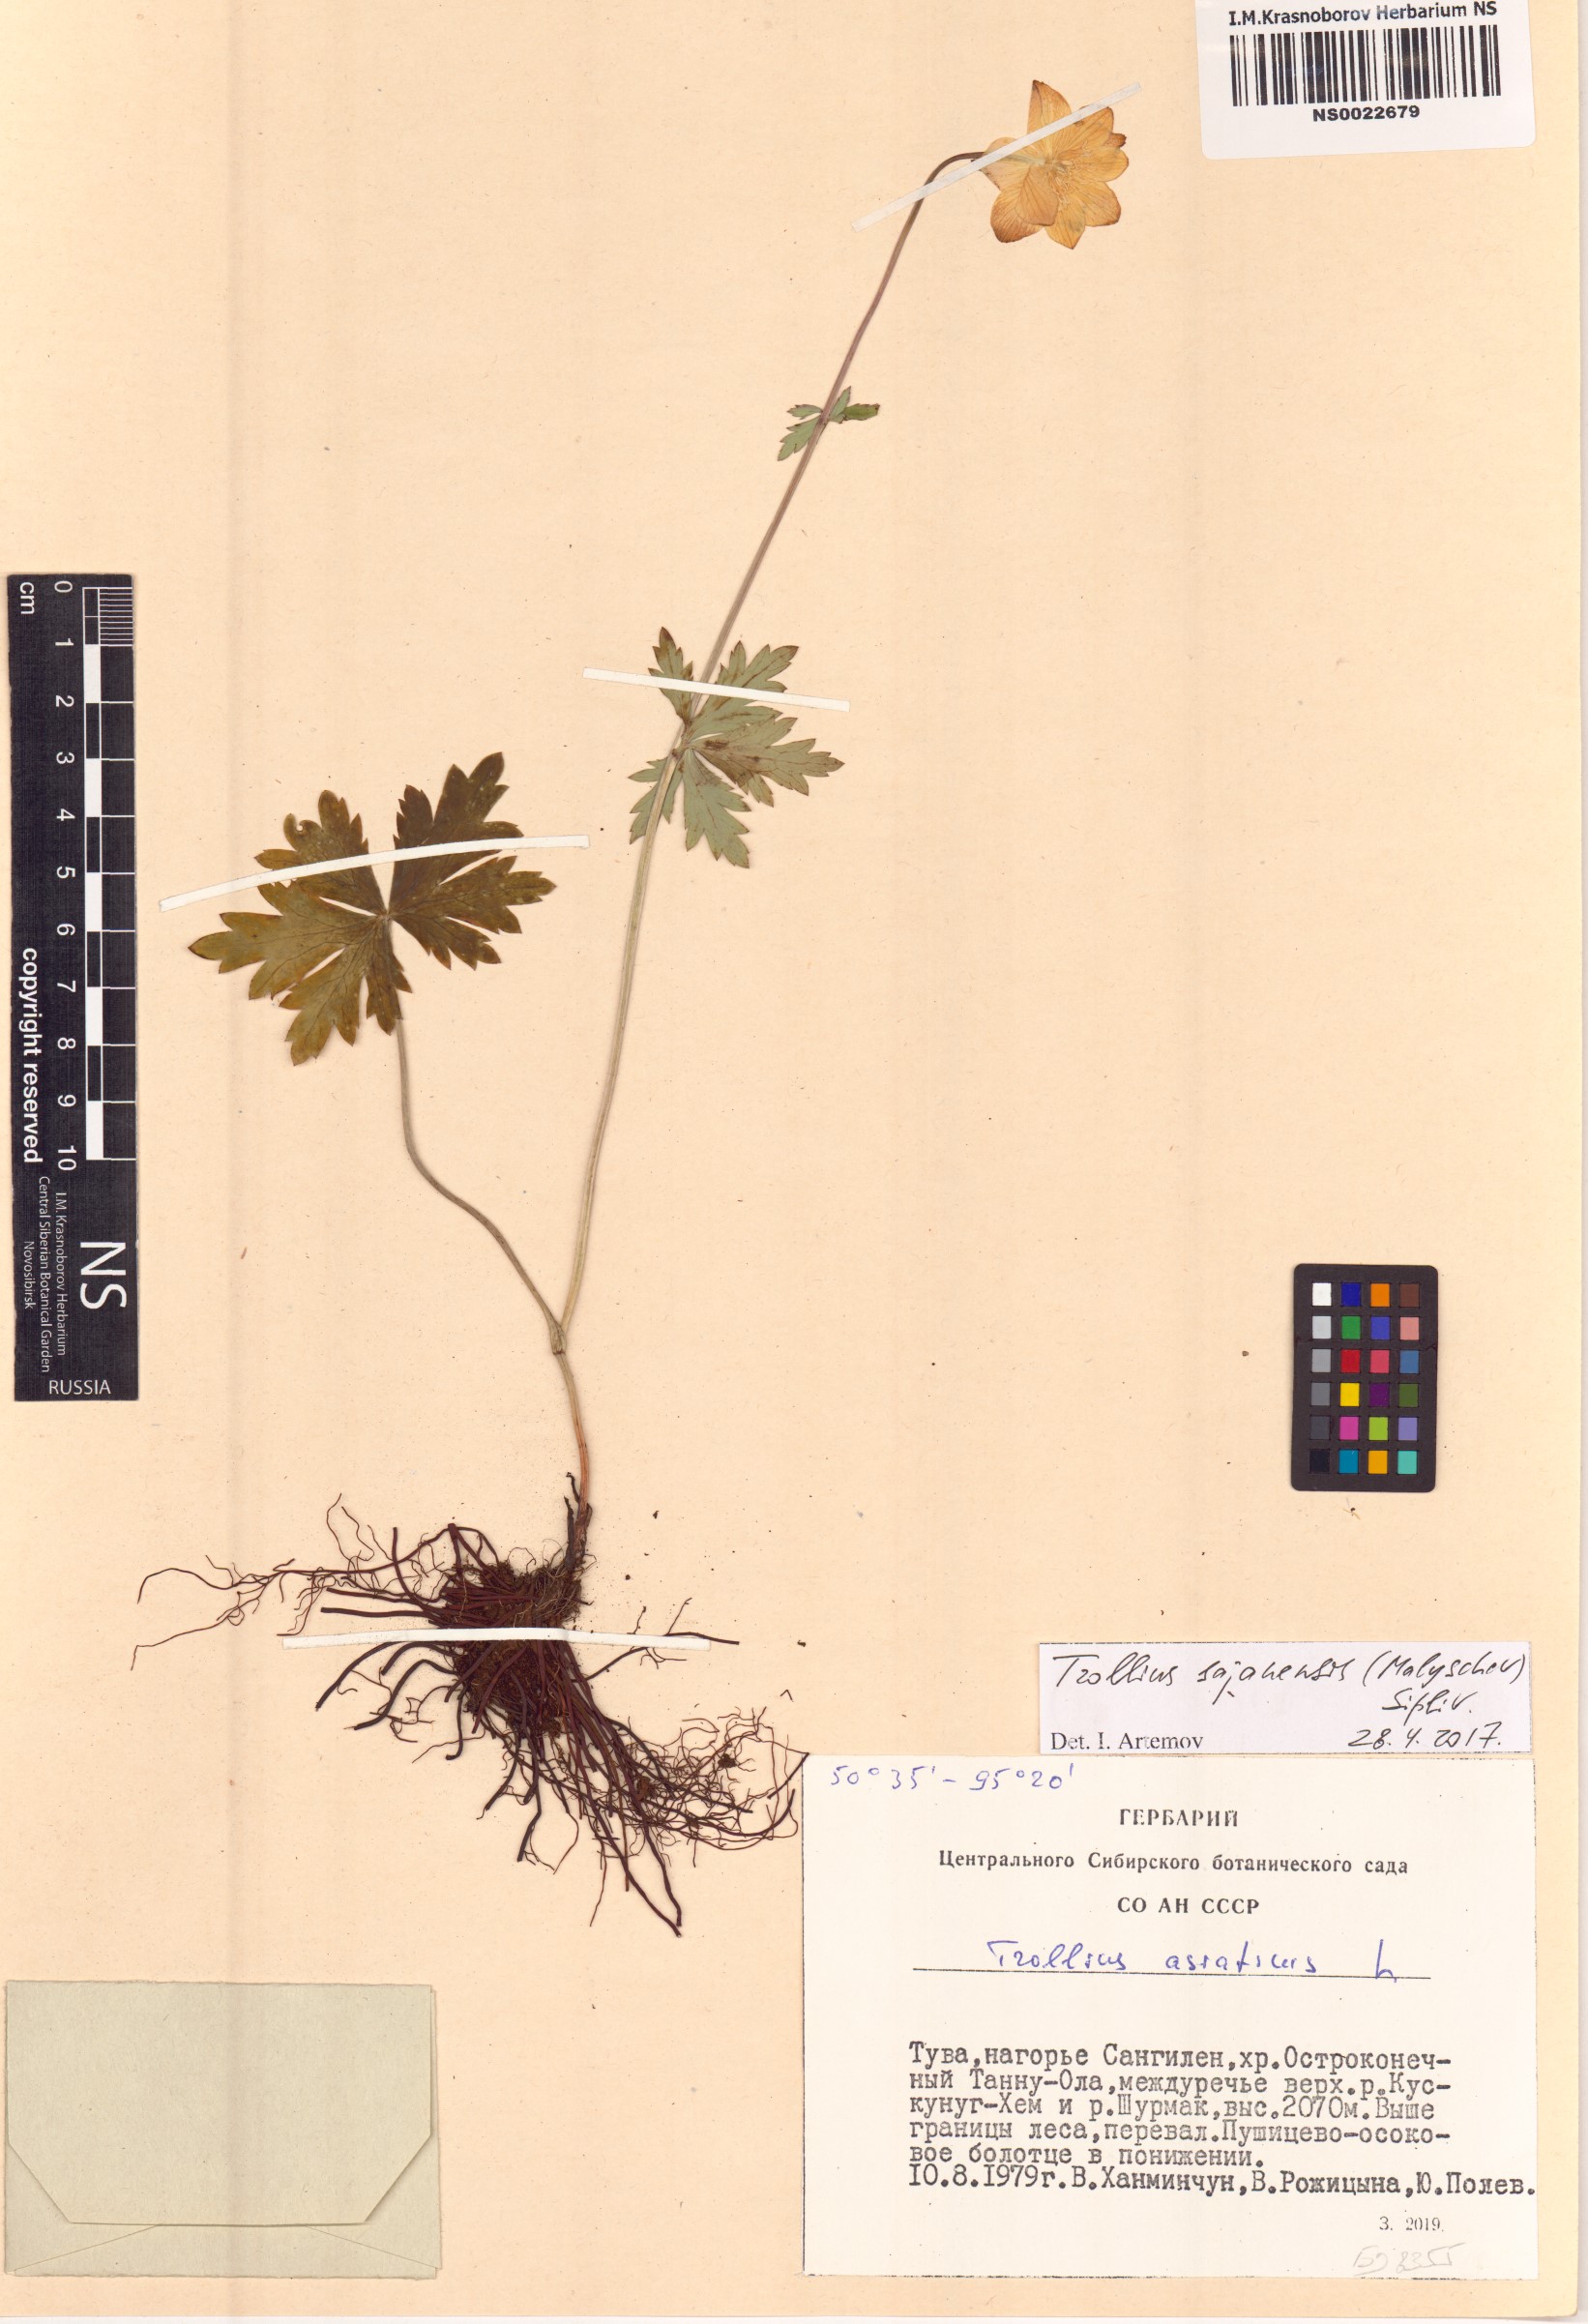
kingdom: Plantae
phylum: Tracheophyta
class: Magnoliopsida
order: Ranunculales
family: Ranunculaceae
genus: Trollius
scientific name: Trollius altaicus
